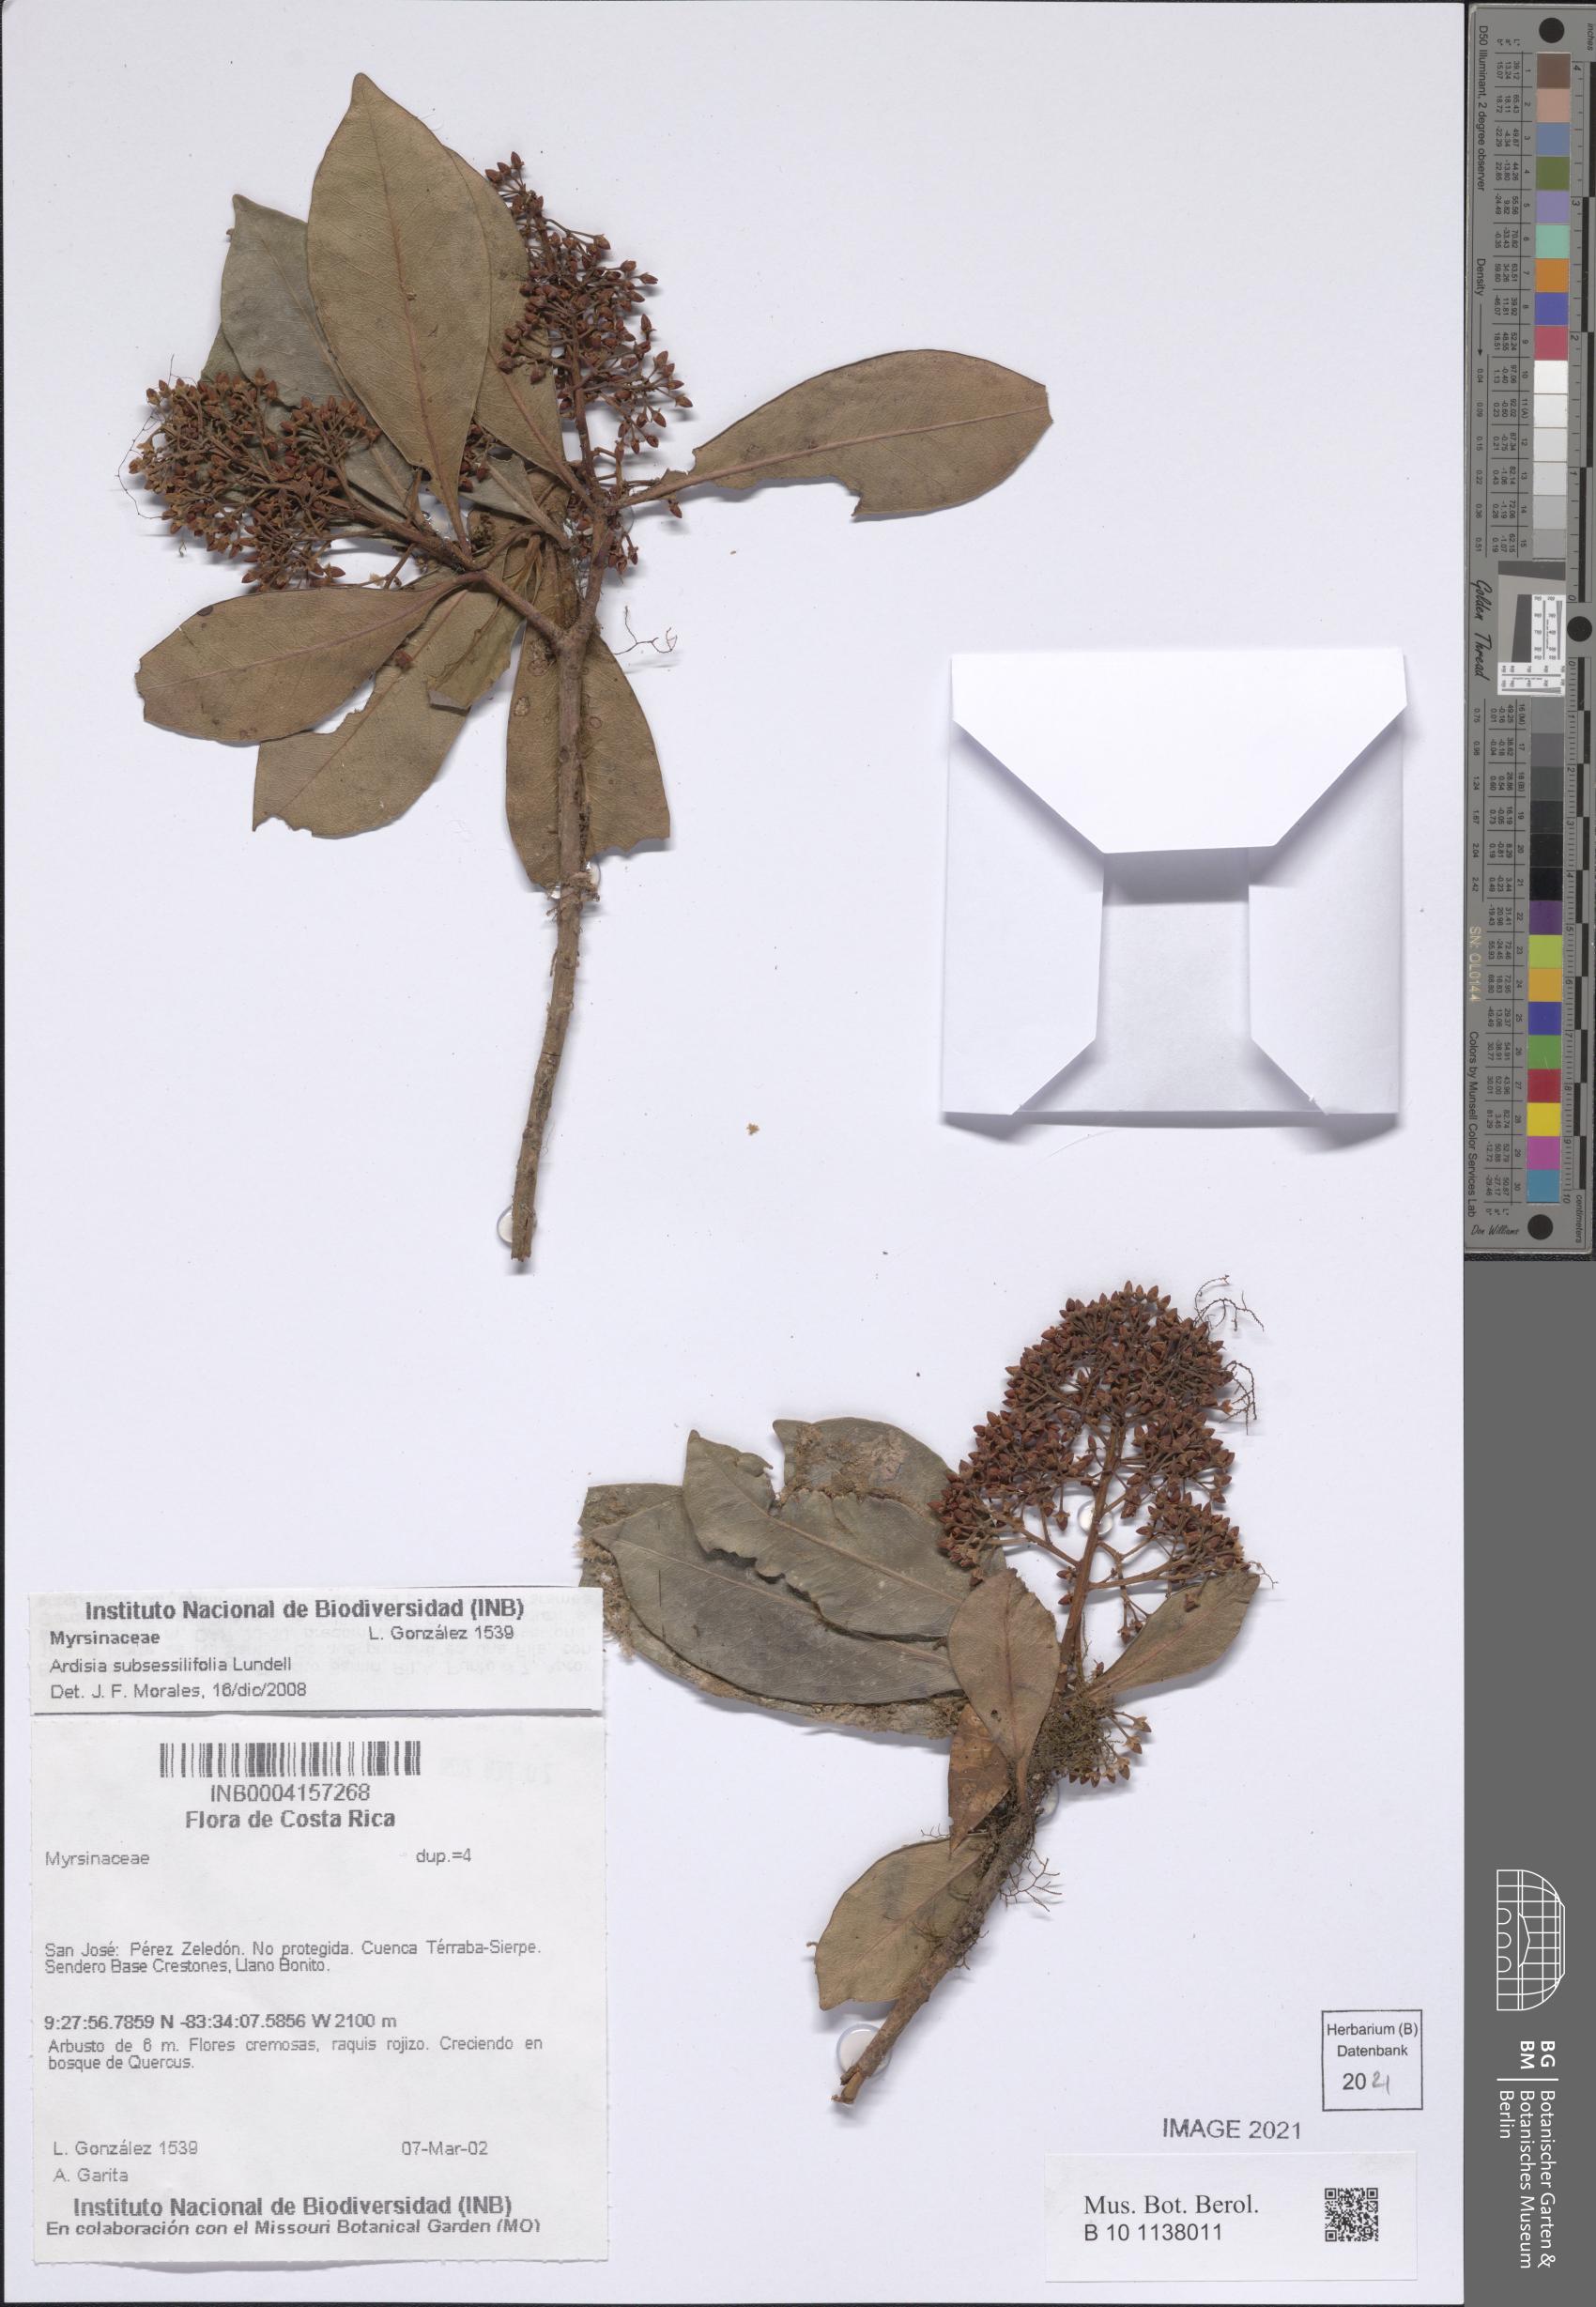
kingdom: Plantae
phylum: Tracheophyta
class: Magnoliopsida
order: Ericales
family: Primulaceae
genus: Ardisia
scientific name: Ardisia subsessilifolia
